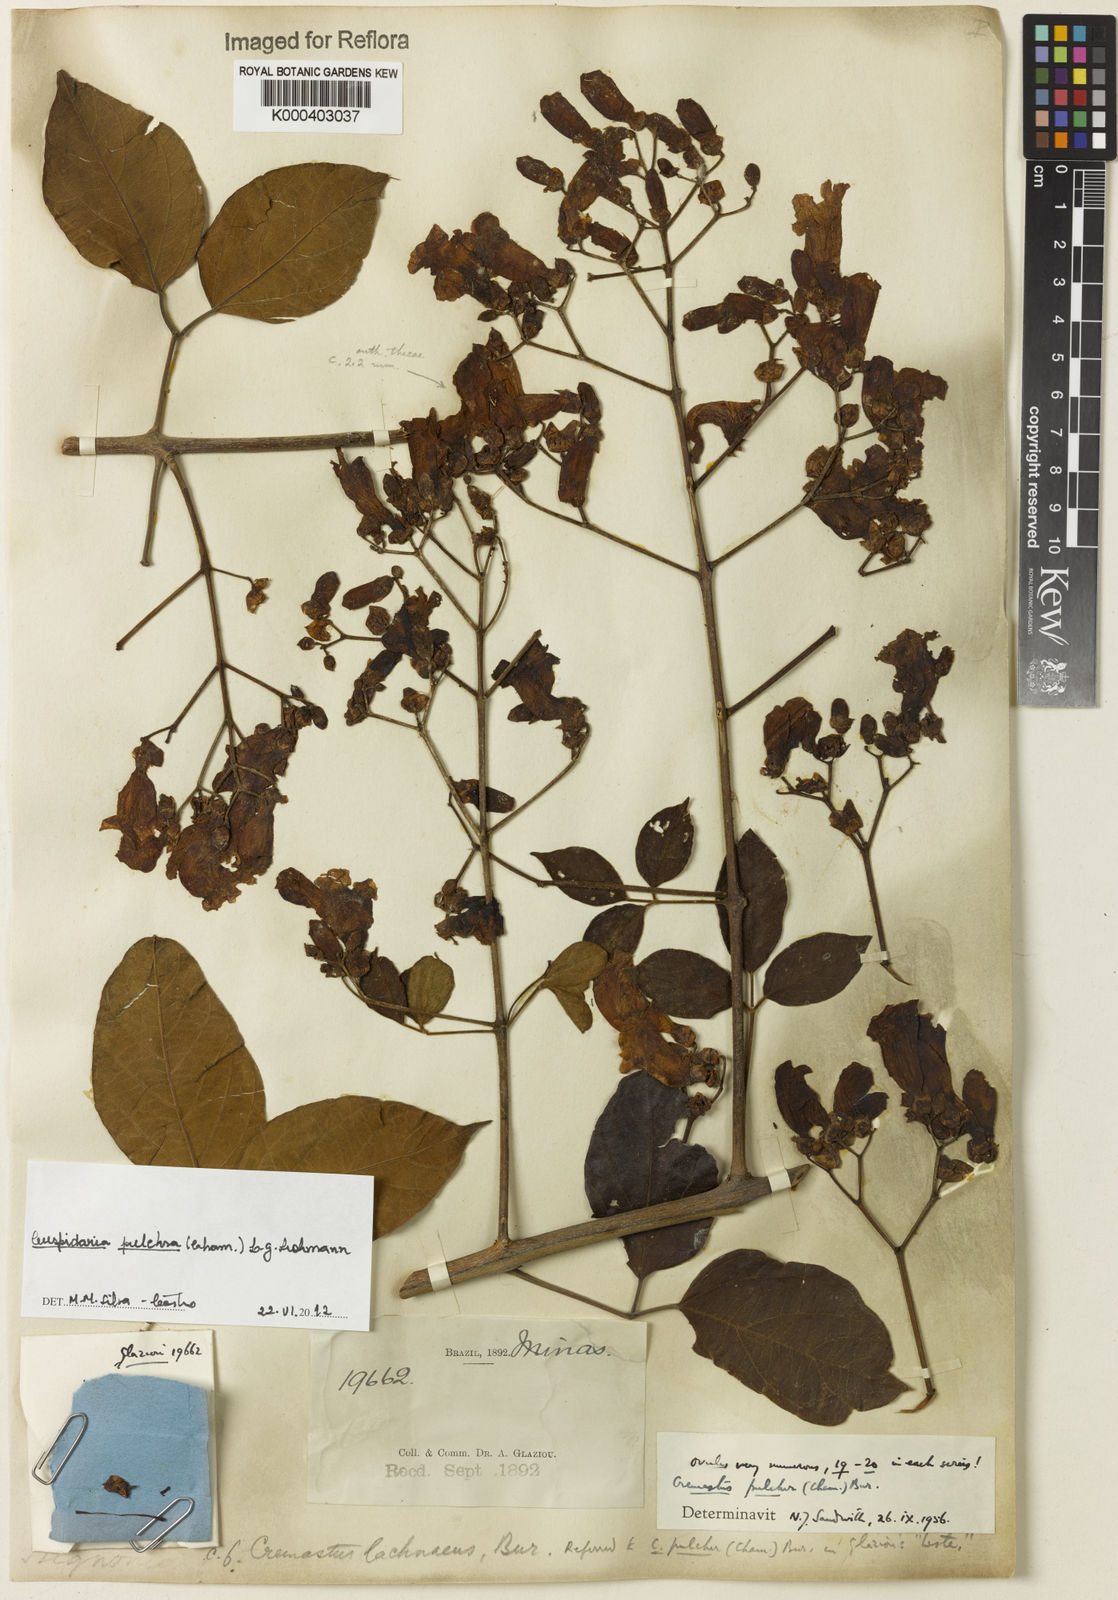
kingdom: Plantae
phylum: Tracheophyta
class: Magnoliopsida
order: Lamiales
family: Bignoniaceae
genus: Cuspidaria
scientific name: Cuspidaria pulchra
